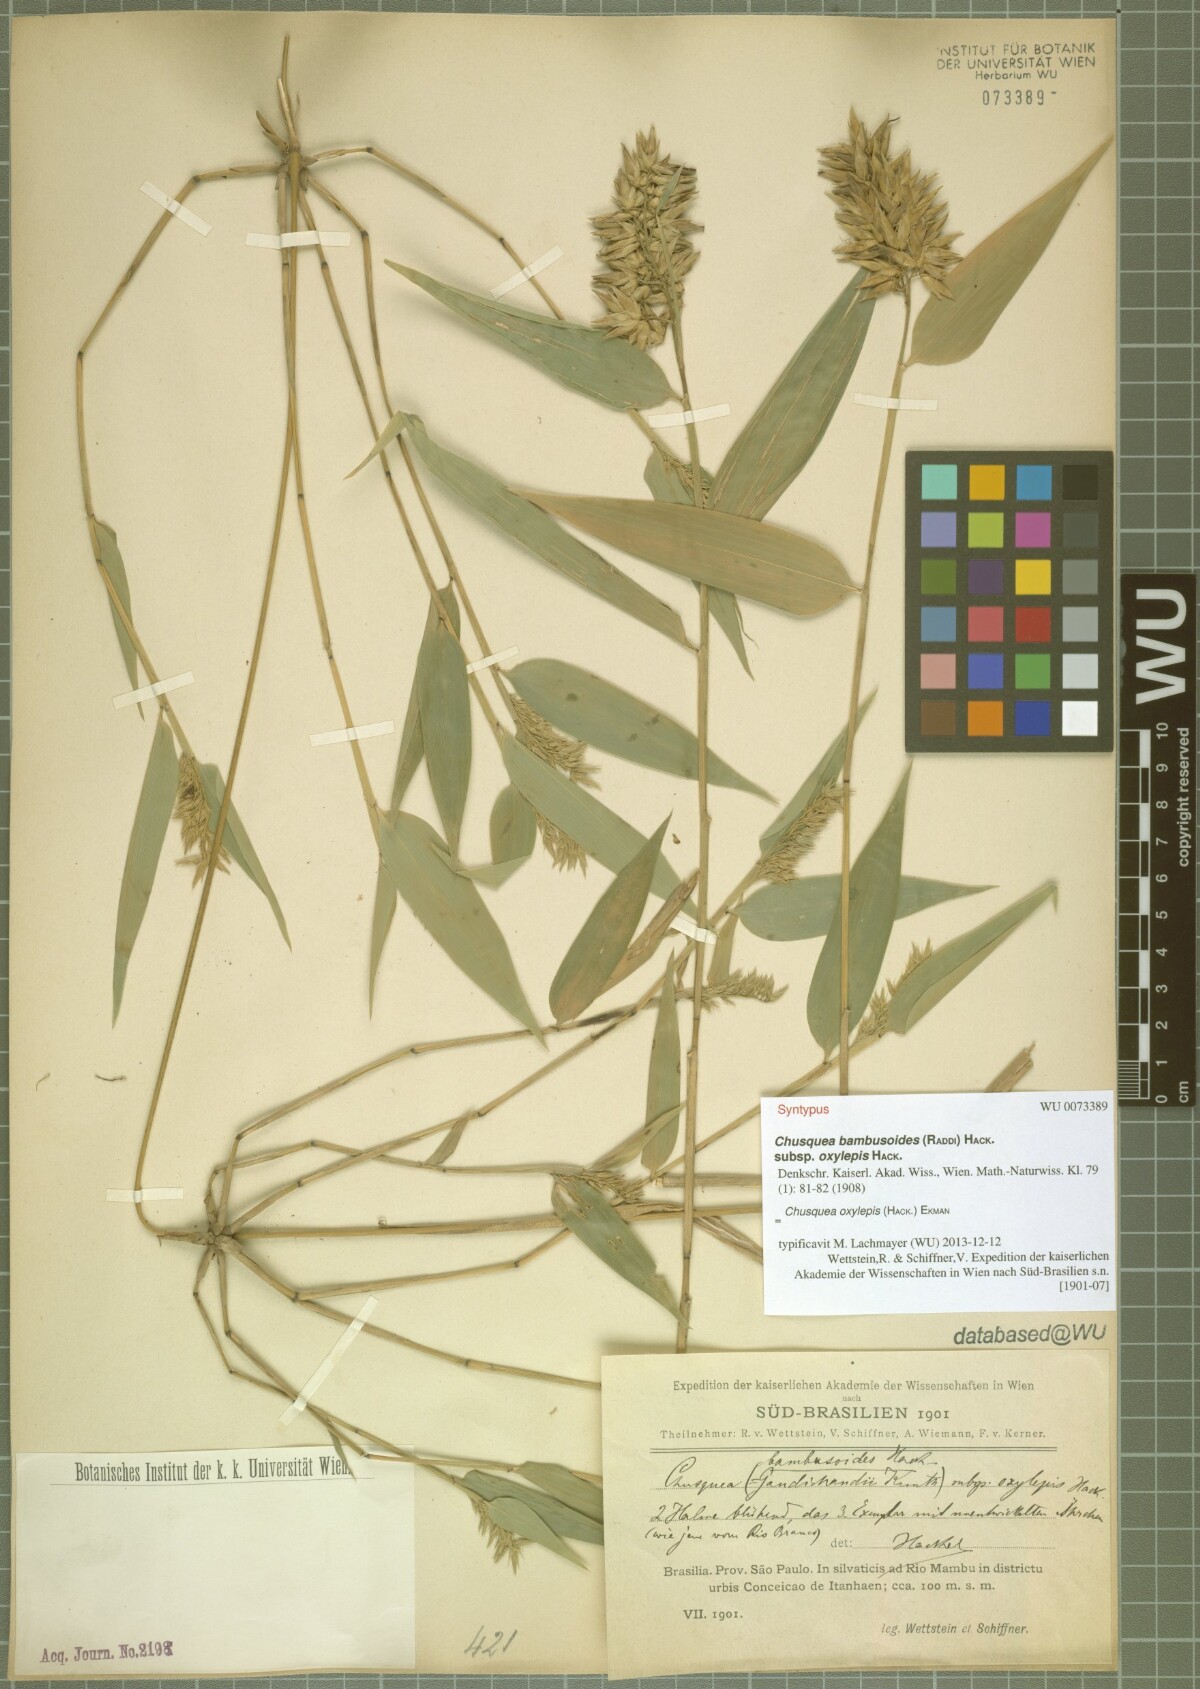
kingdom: Plantae
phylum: Tracheophyta
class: Liliopsida
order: Poales
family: Poaceae
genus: Chusquea
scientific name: Chusquea oxylepis
